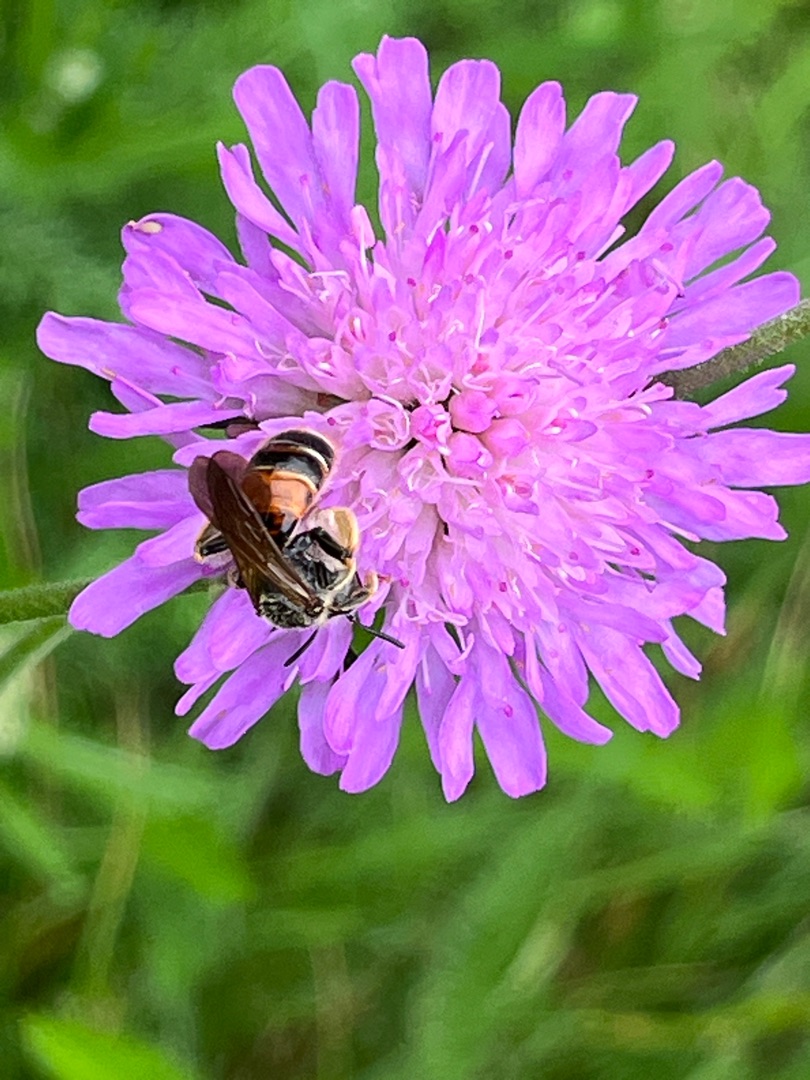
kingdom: Animalia
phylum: Arthropoda
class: Insecta
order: Hymenoptera
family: Andrenidae
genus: Andrena
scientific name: Andrena hattorfiana
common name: Blåhatjordbi
